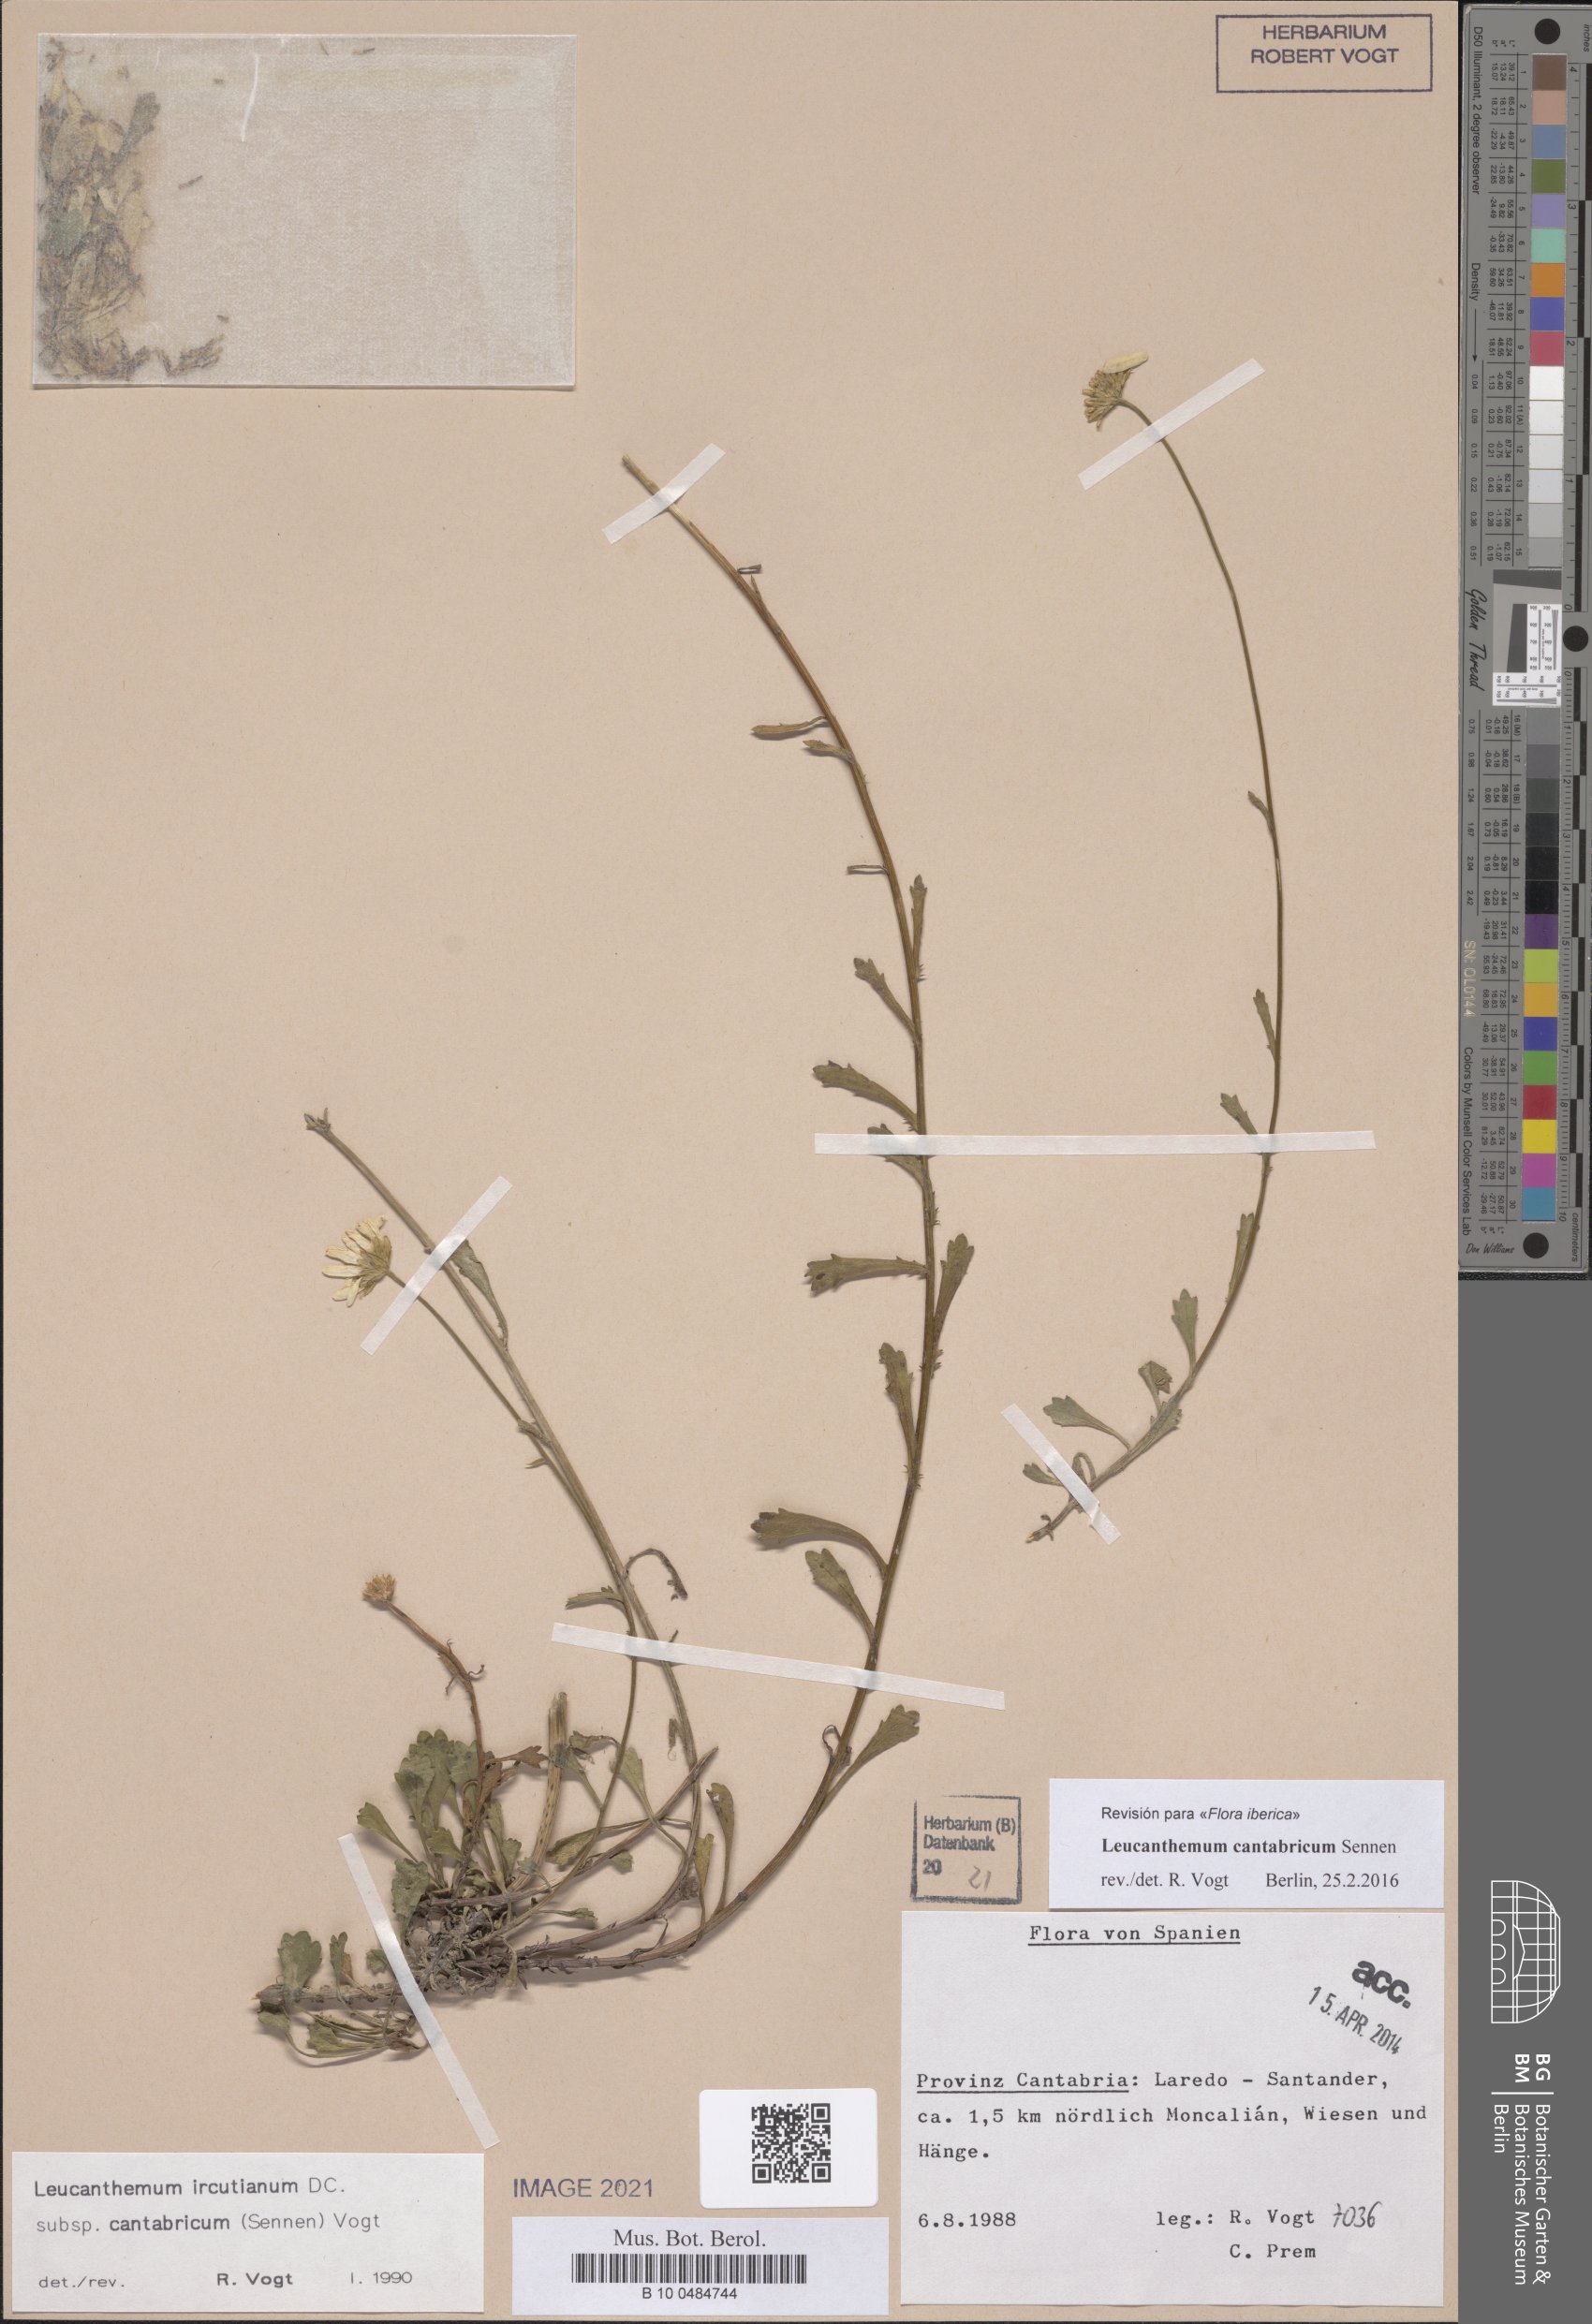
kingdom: Plantae
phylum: Tracheophyta
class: Magnoliopsida
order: Asterales
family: Asteraceae
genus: Leucanthemum
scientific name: Leucanthemum cantabricum
